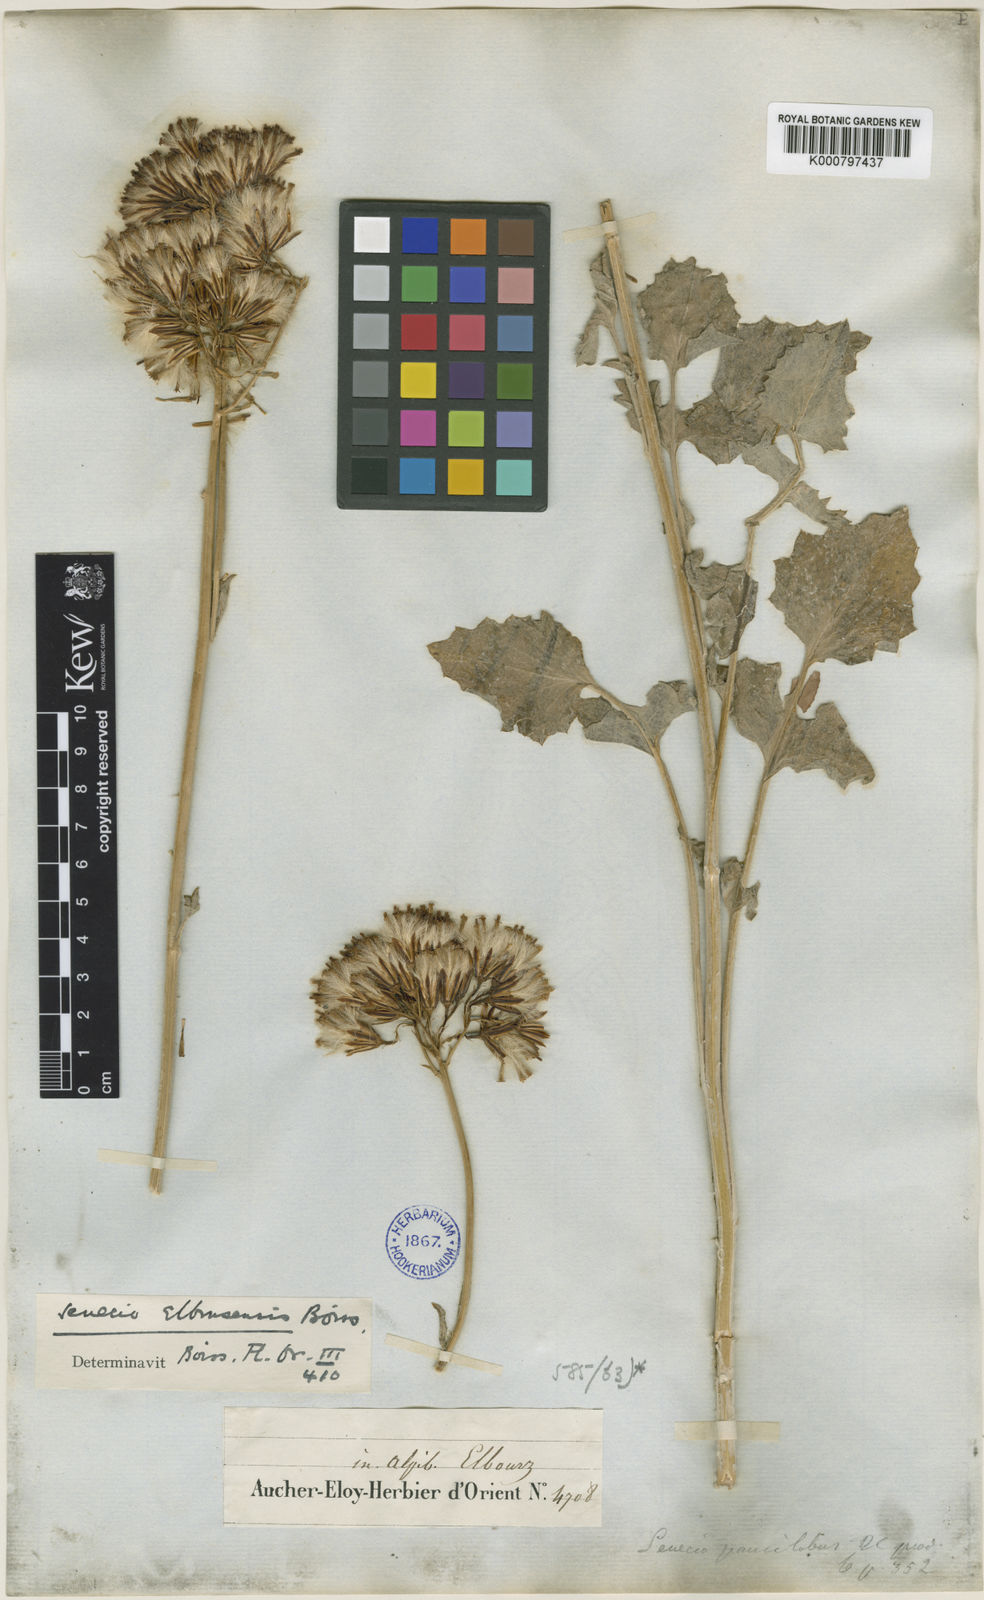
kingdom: Plantae
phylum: Tracheophyta
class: Magnoliopsida
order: Asterales
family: Asteraceae
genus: Iranecio
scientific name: Iranecio elbrusensis
